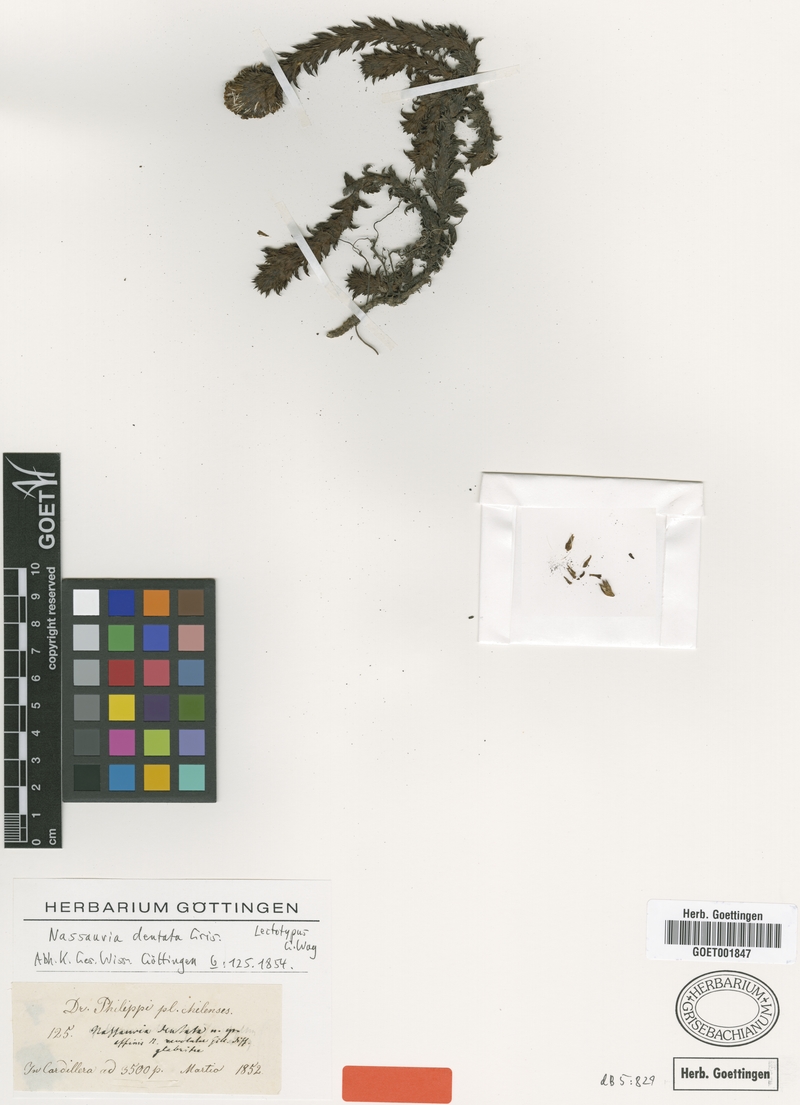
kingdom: Plantae
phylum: Tracheophyta
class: Magnoliopsida
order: Asterales
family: Asteraceae
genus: Nassauvia
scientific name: Nassauvia dentata
